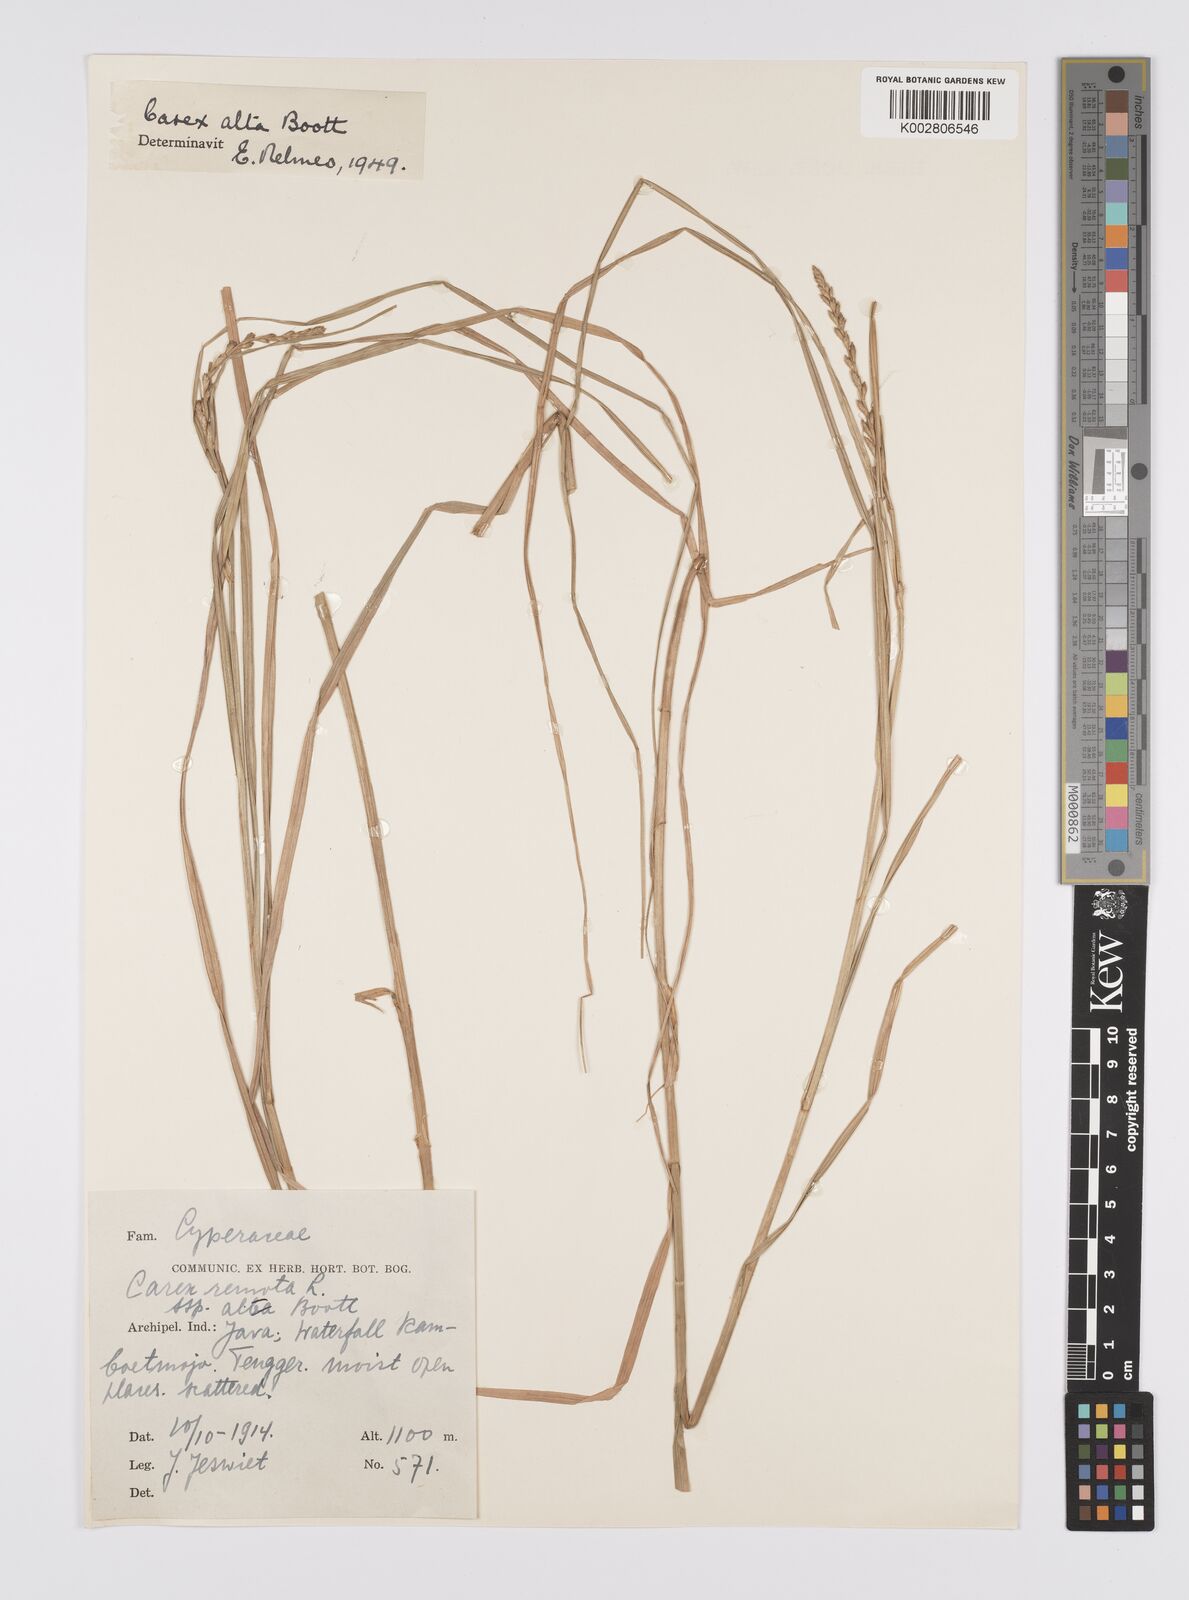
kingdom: Plantae
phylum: Tracheophyta
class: Liliopsida
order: Poales
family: Cyperaceae
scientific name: Cyperaceae
